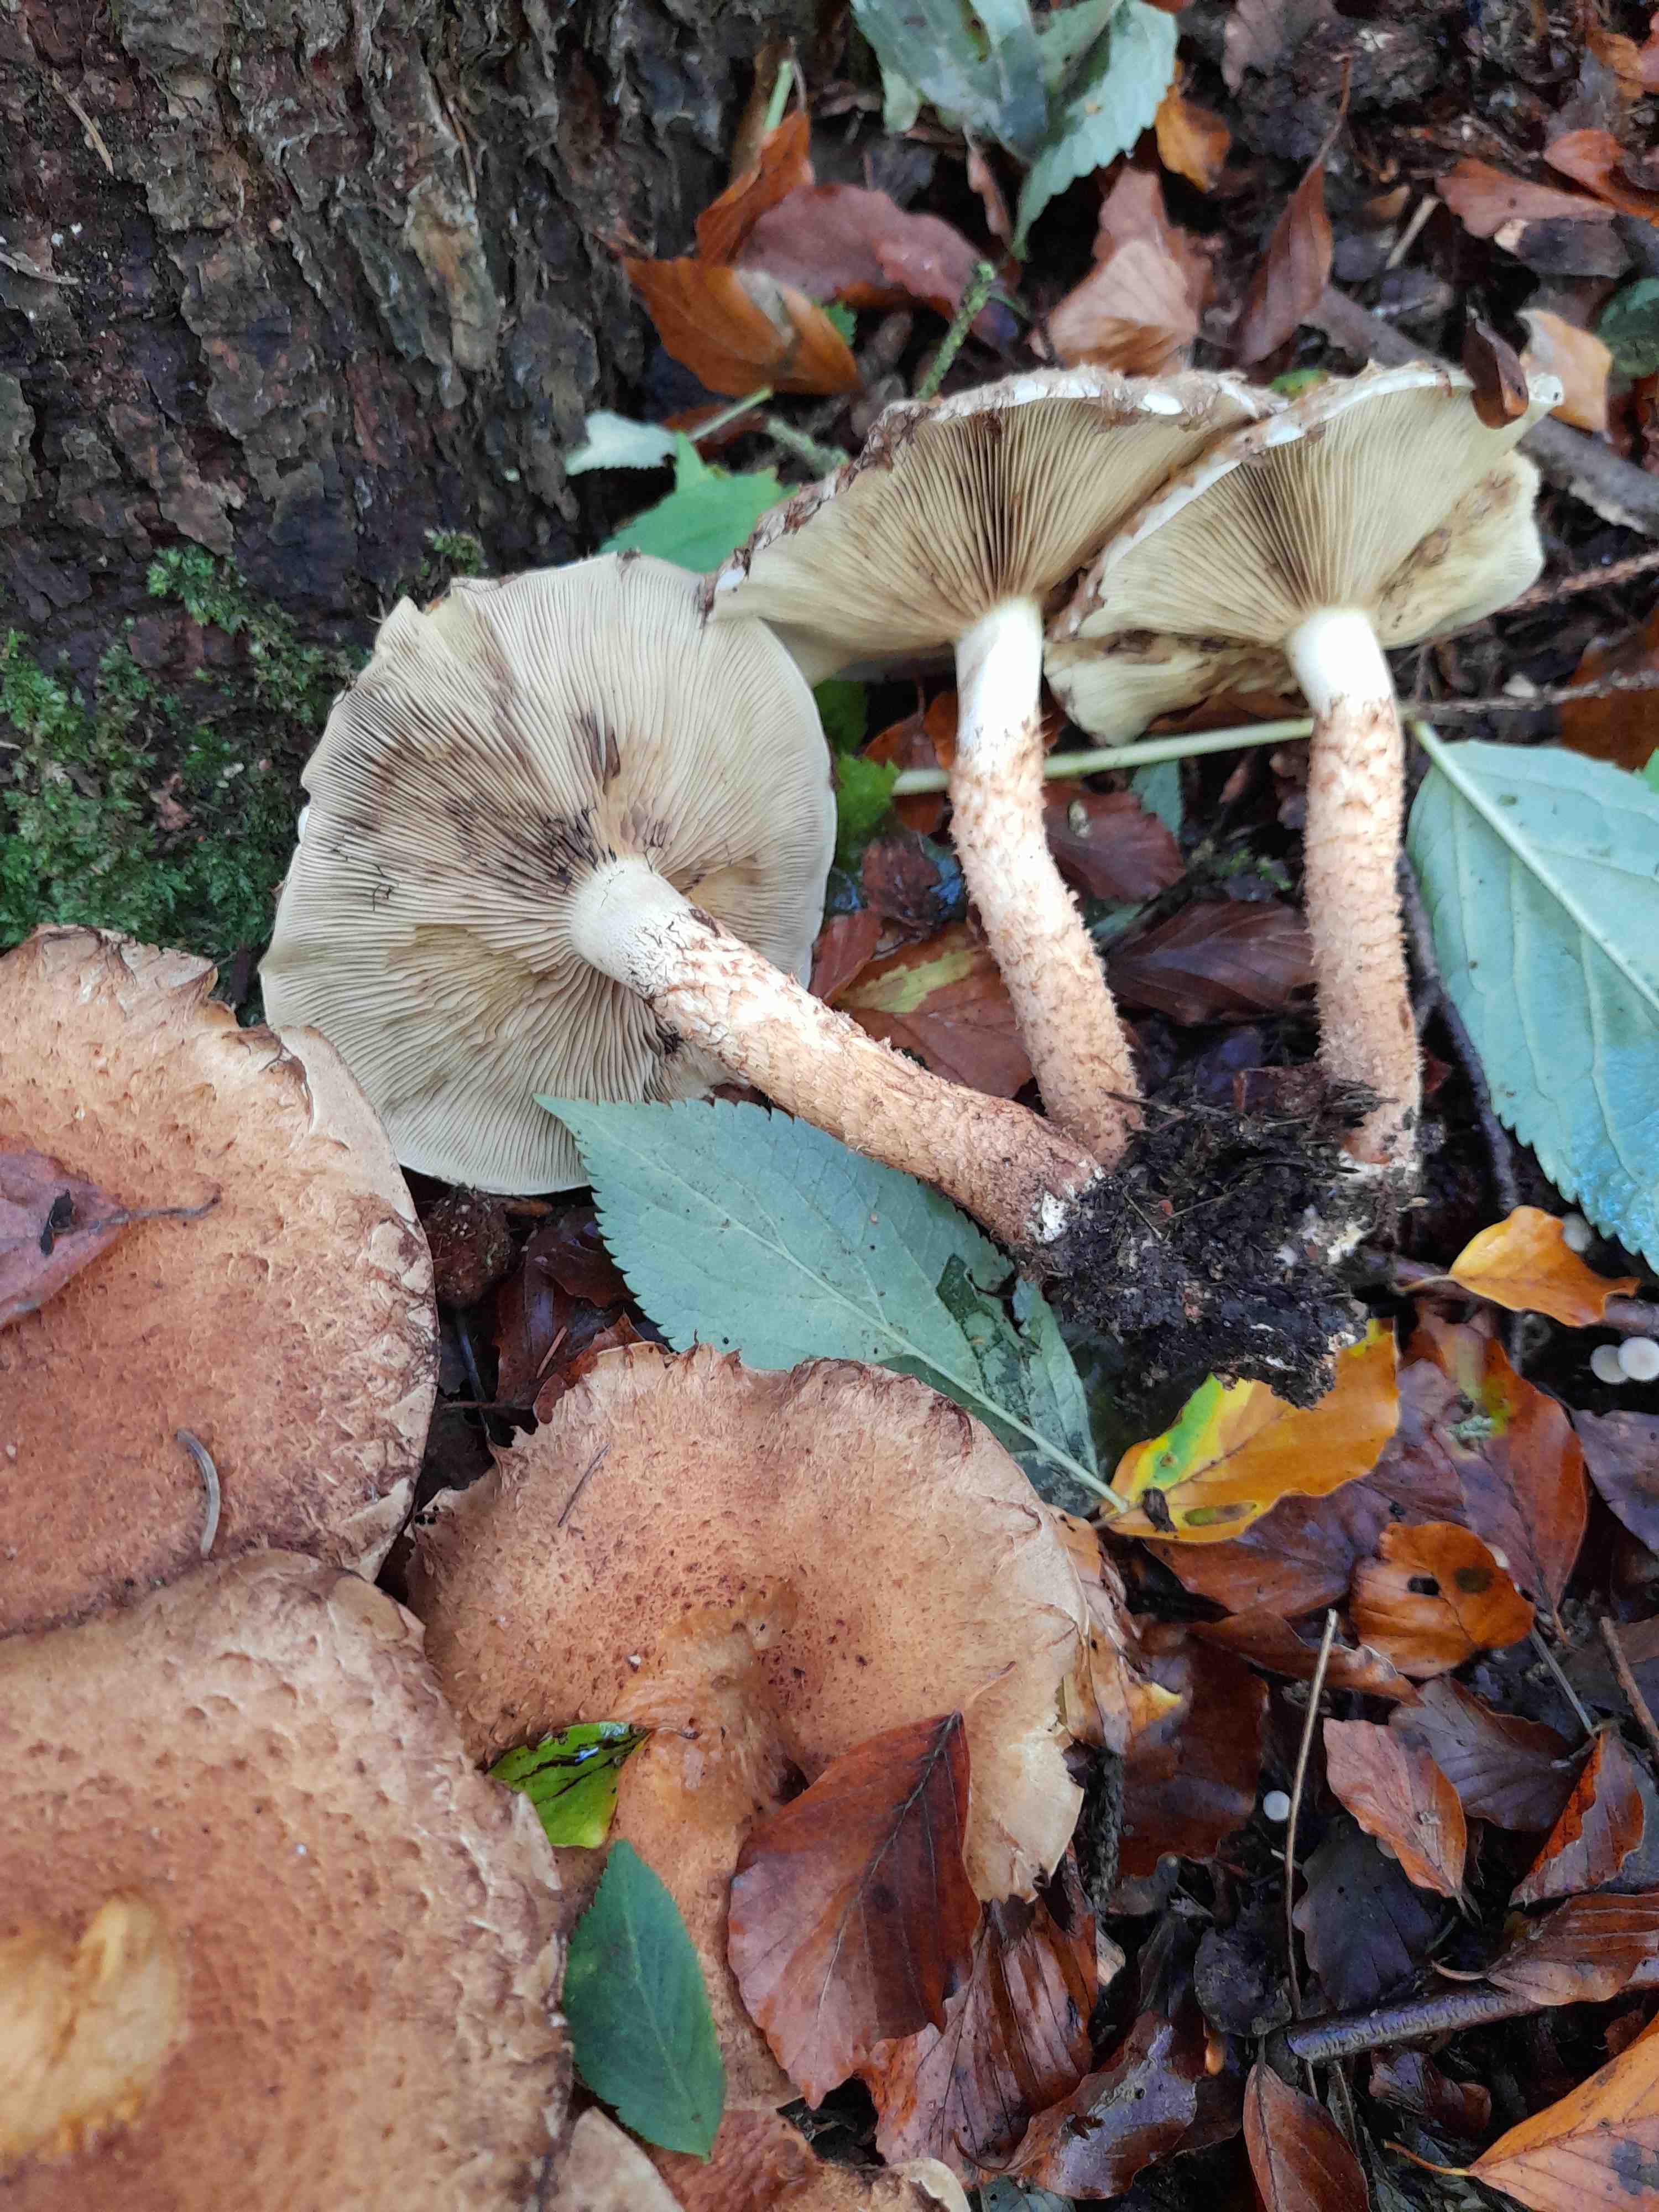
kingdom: Fungi
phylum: Basidiomycota
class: Agaricomycetes
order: Agaricales
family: Strophariaceae
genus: Pholiota
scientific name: Pholiota squarrosa
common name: krumskællet skælhat
